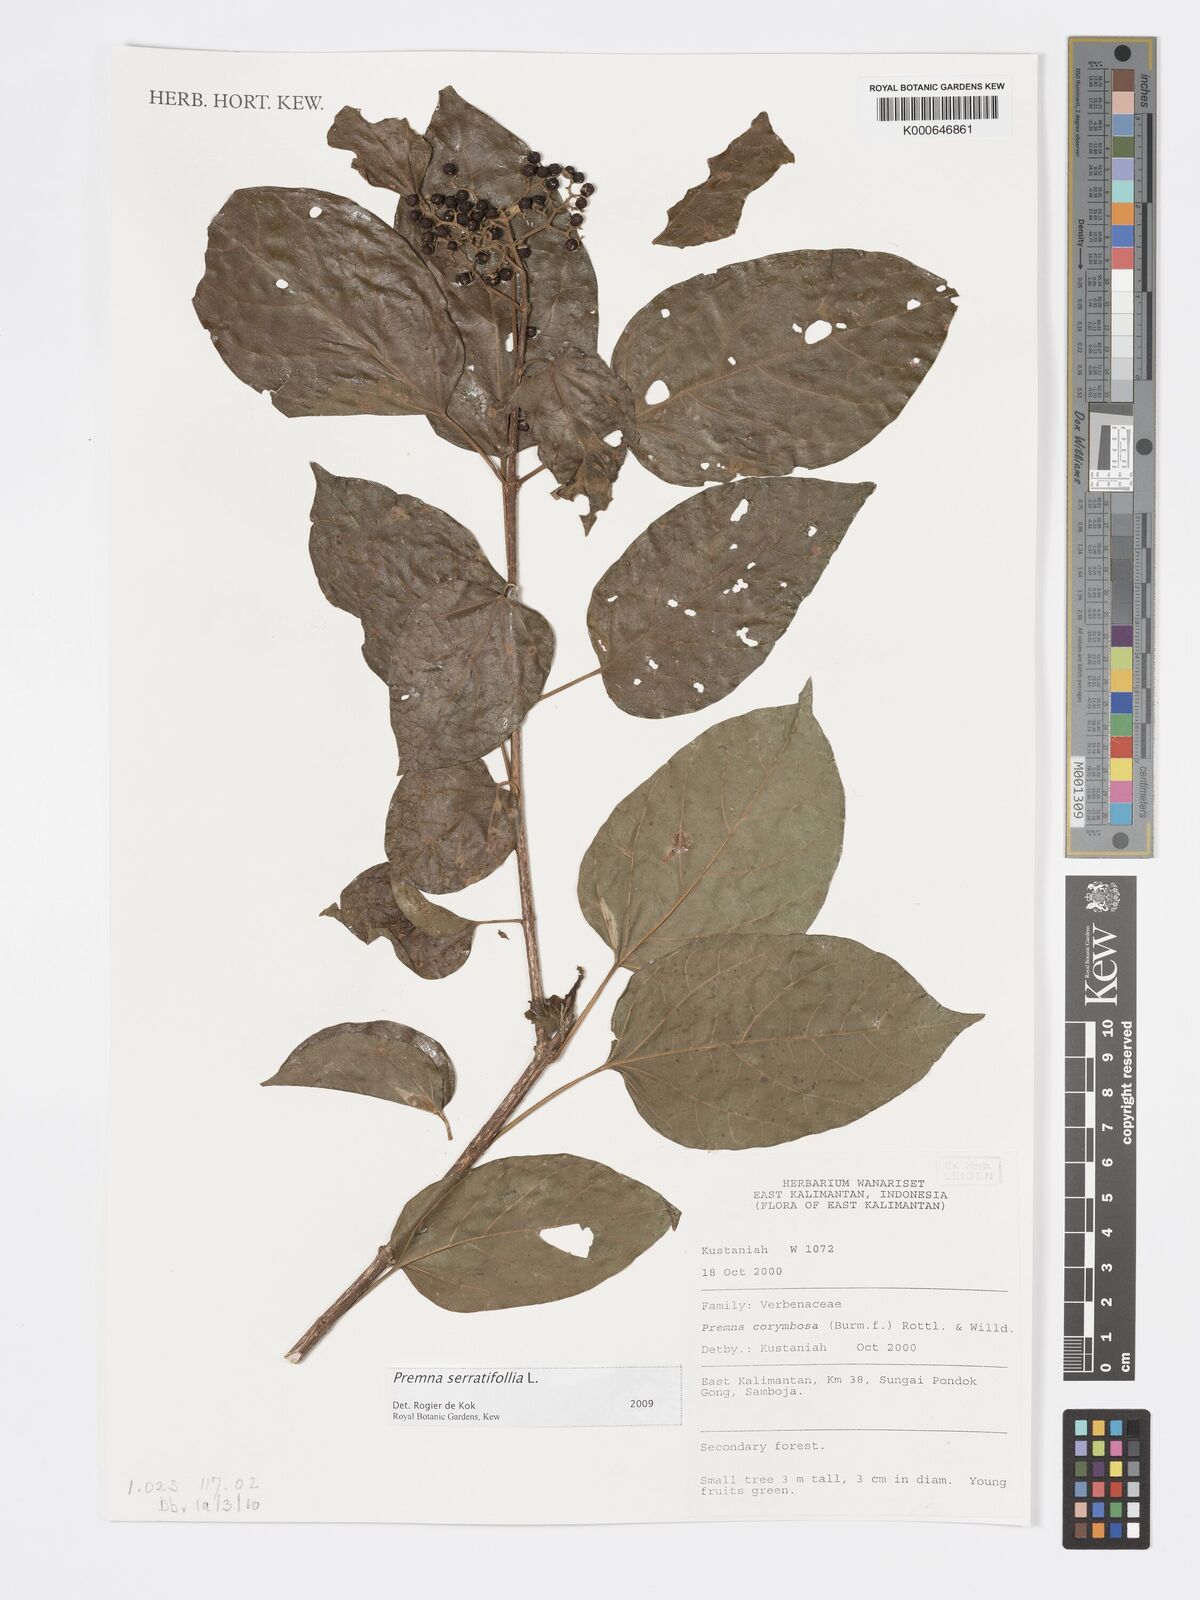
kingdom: Plantae
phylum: Tracheophyta
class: Magnoliopsida
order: Lamiales
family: Lamiaceae
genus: Premna
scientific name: Premna serratifolia
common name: Bastard guelder
